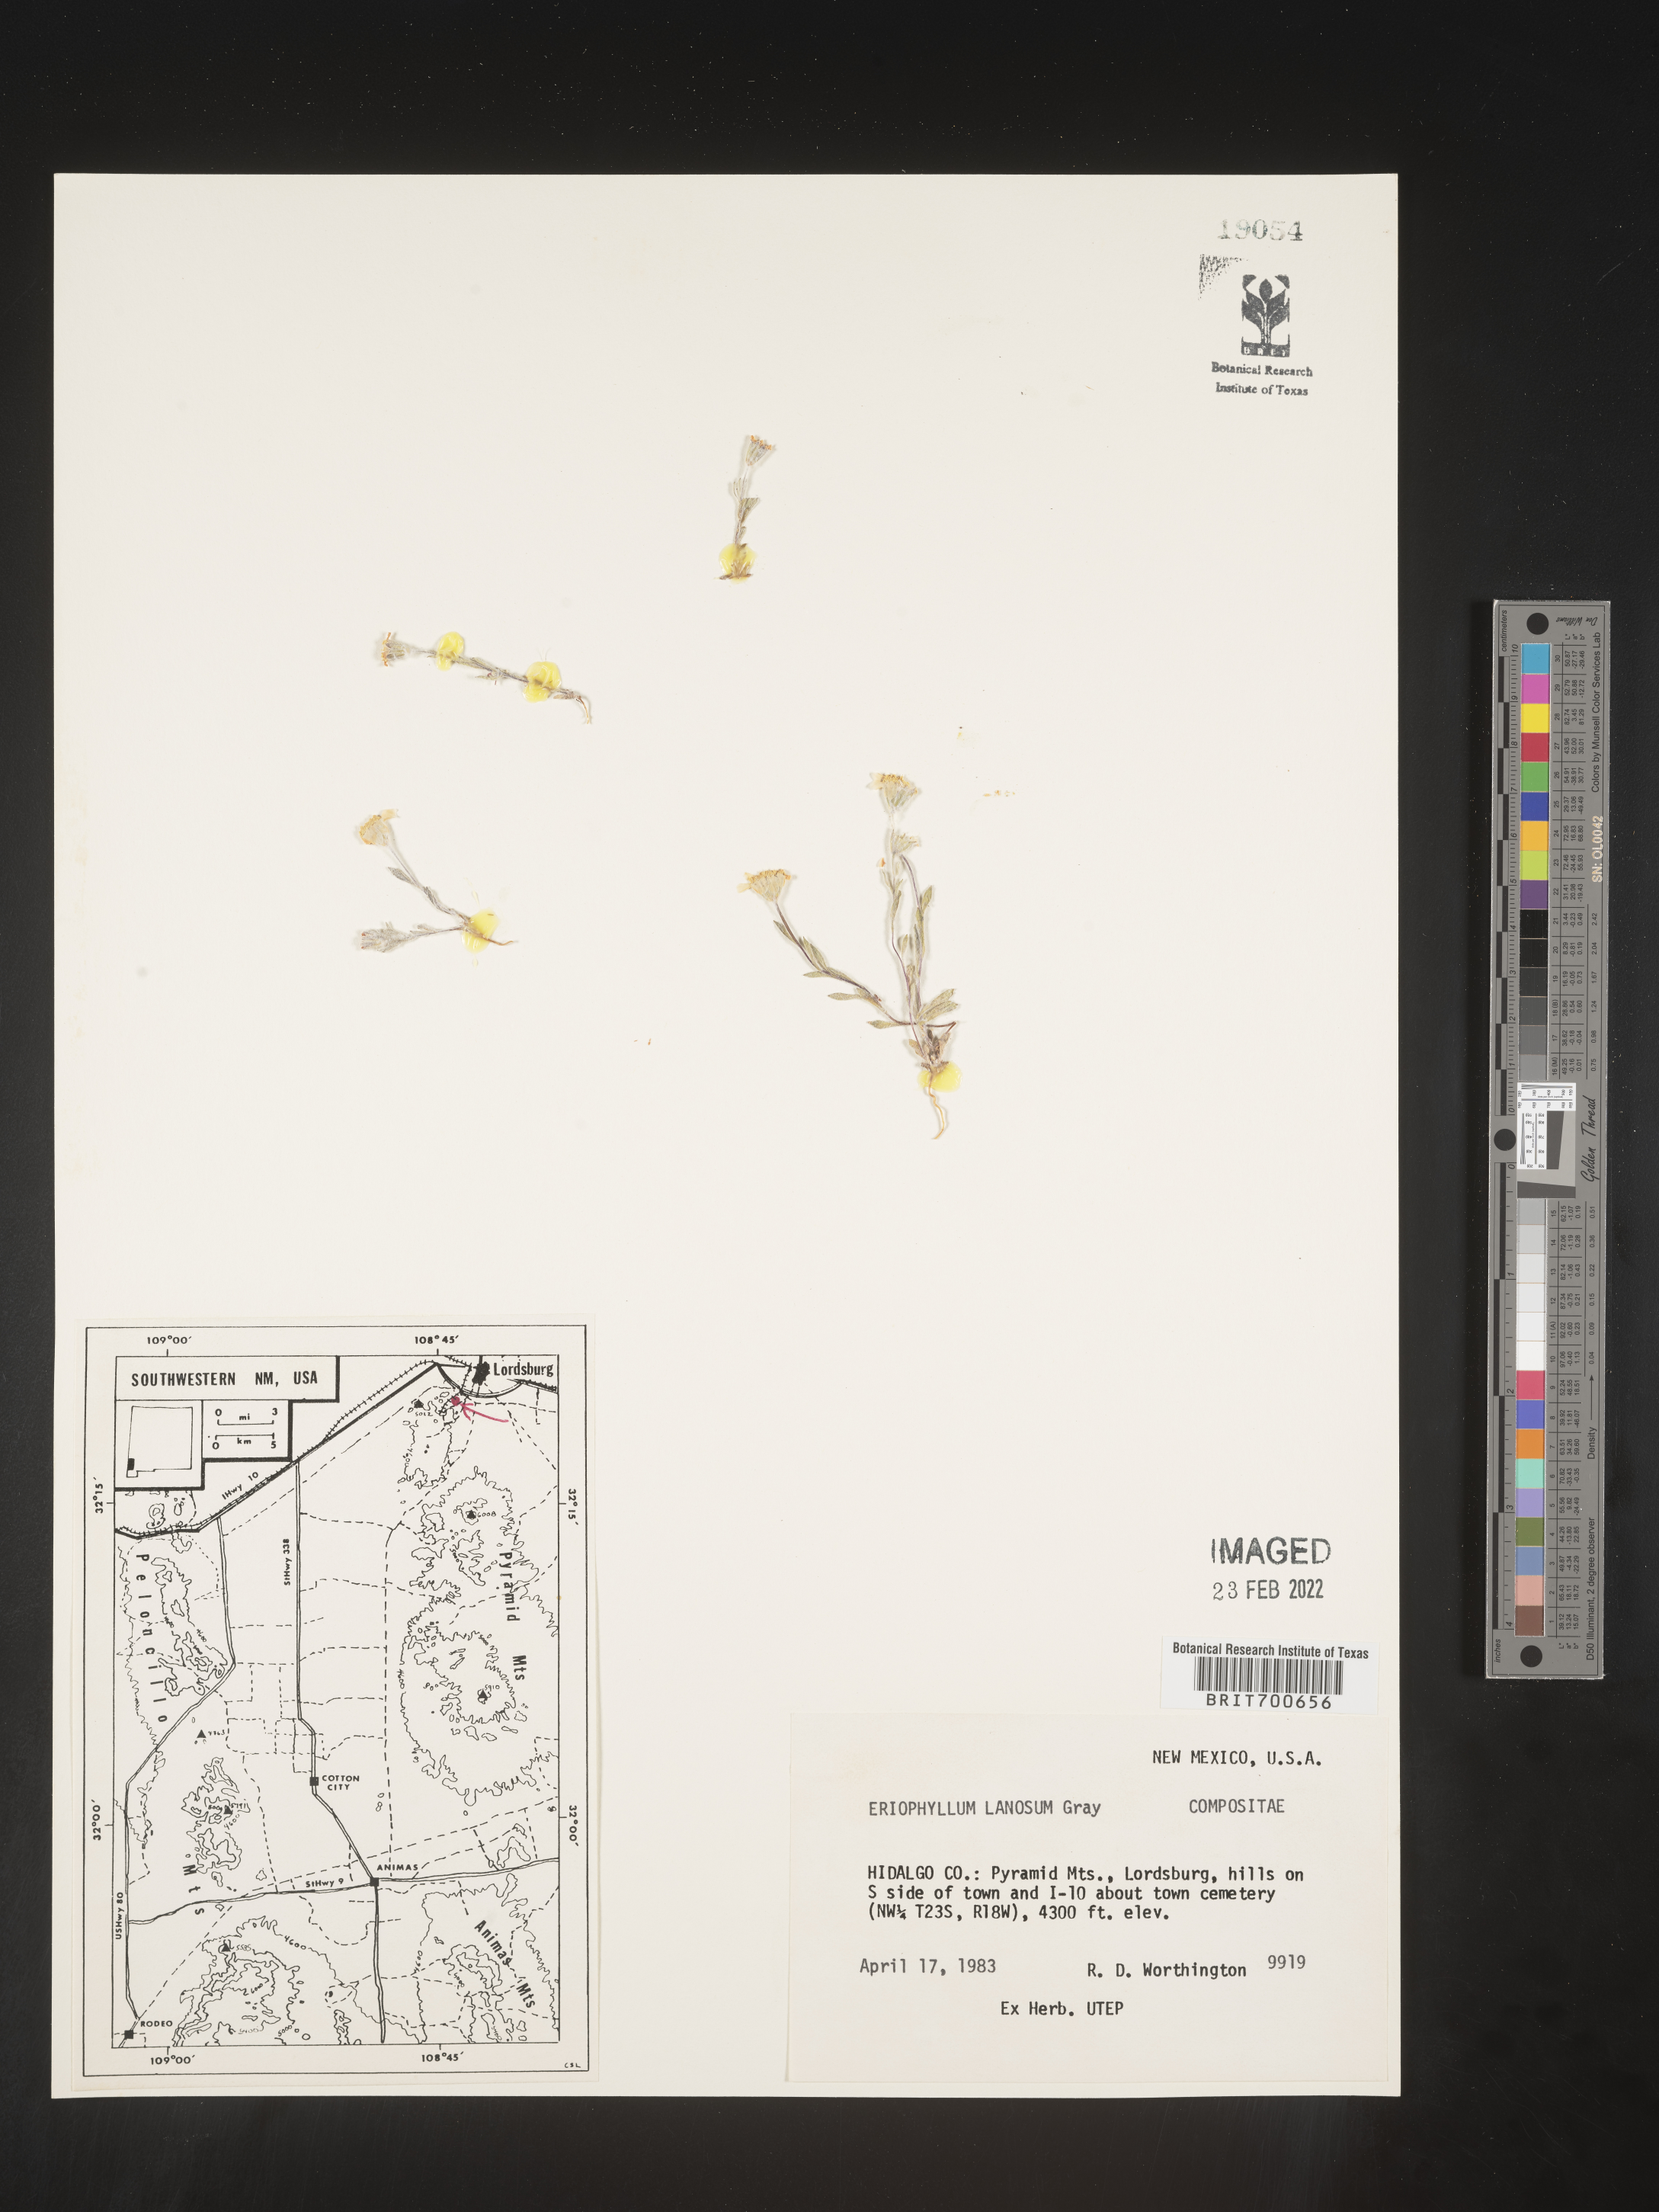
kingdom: Plantae
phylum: Tracheophyta
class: Magnoliopsida
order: Asterales
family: Asteraceae
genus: Eriophyllum
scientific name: Eriophyllum lanosum
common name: White easter-bonnets
